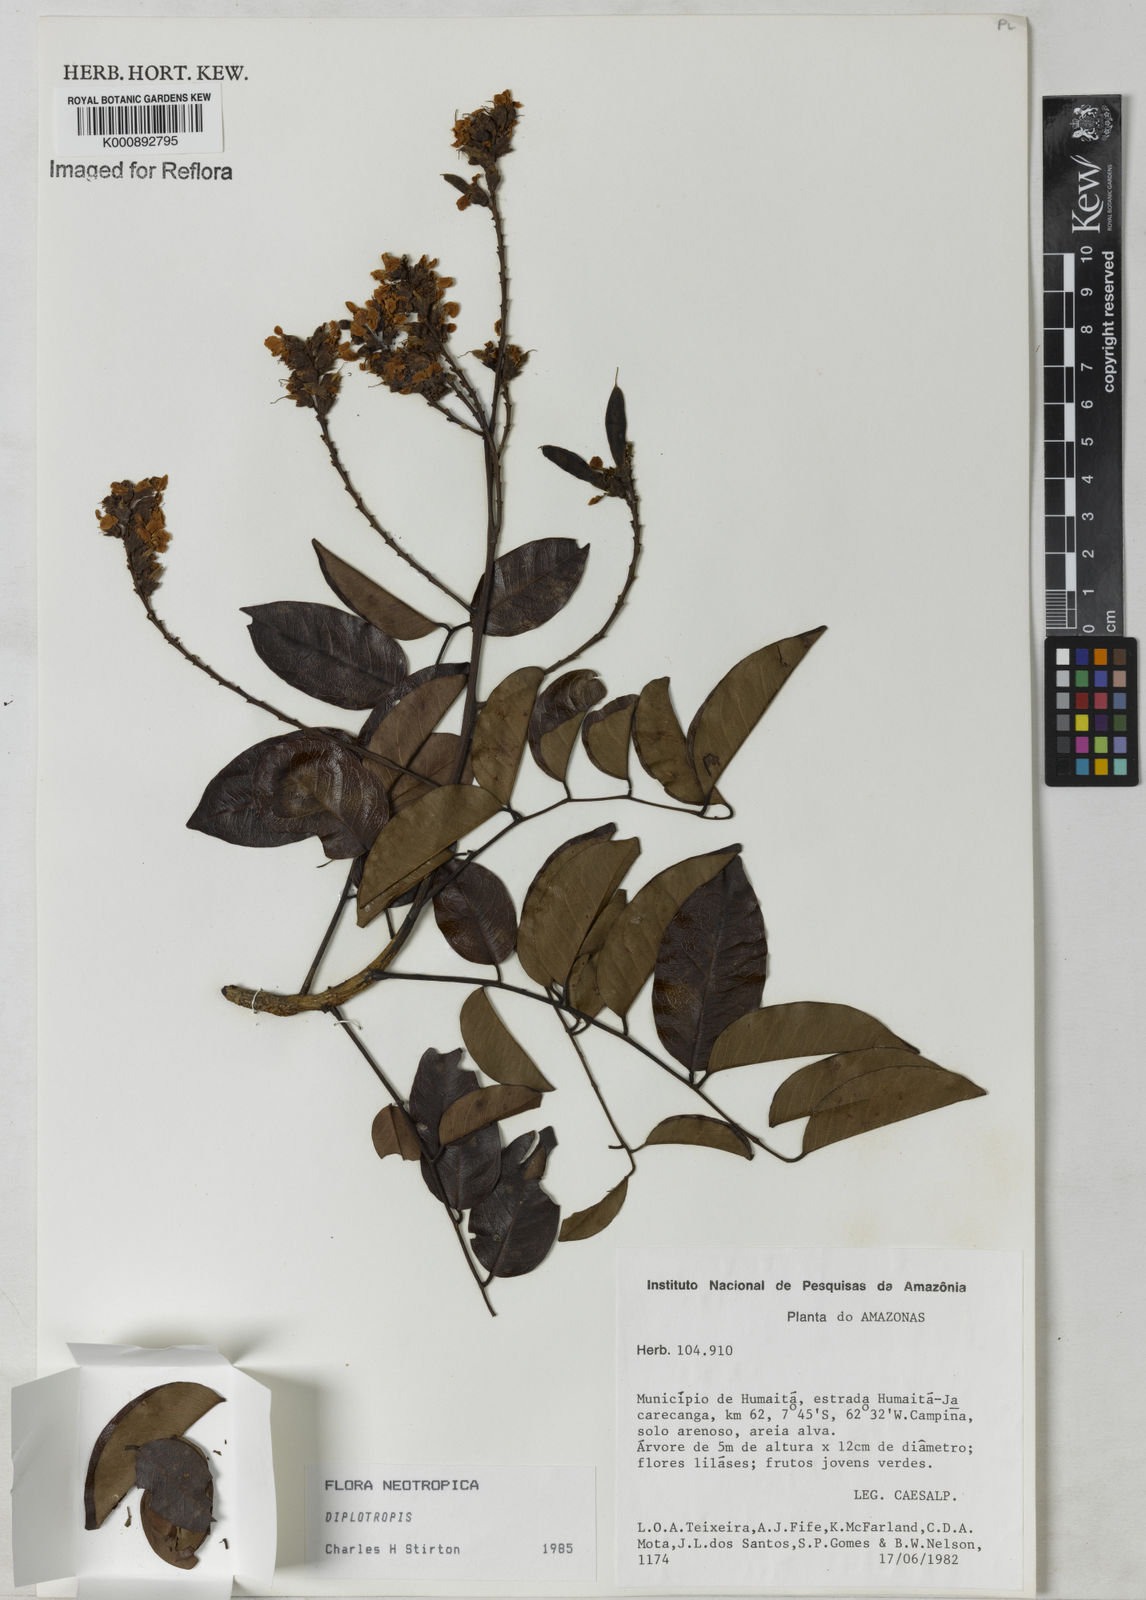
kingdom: Plantae
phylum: Tracheophyta
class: Magnoliopsida
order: Fabales
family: Fabaceae
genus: Diplotropis
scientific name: Diplotropis brasiliensis
